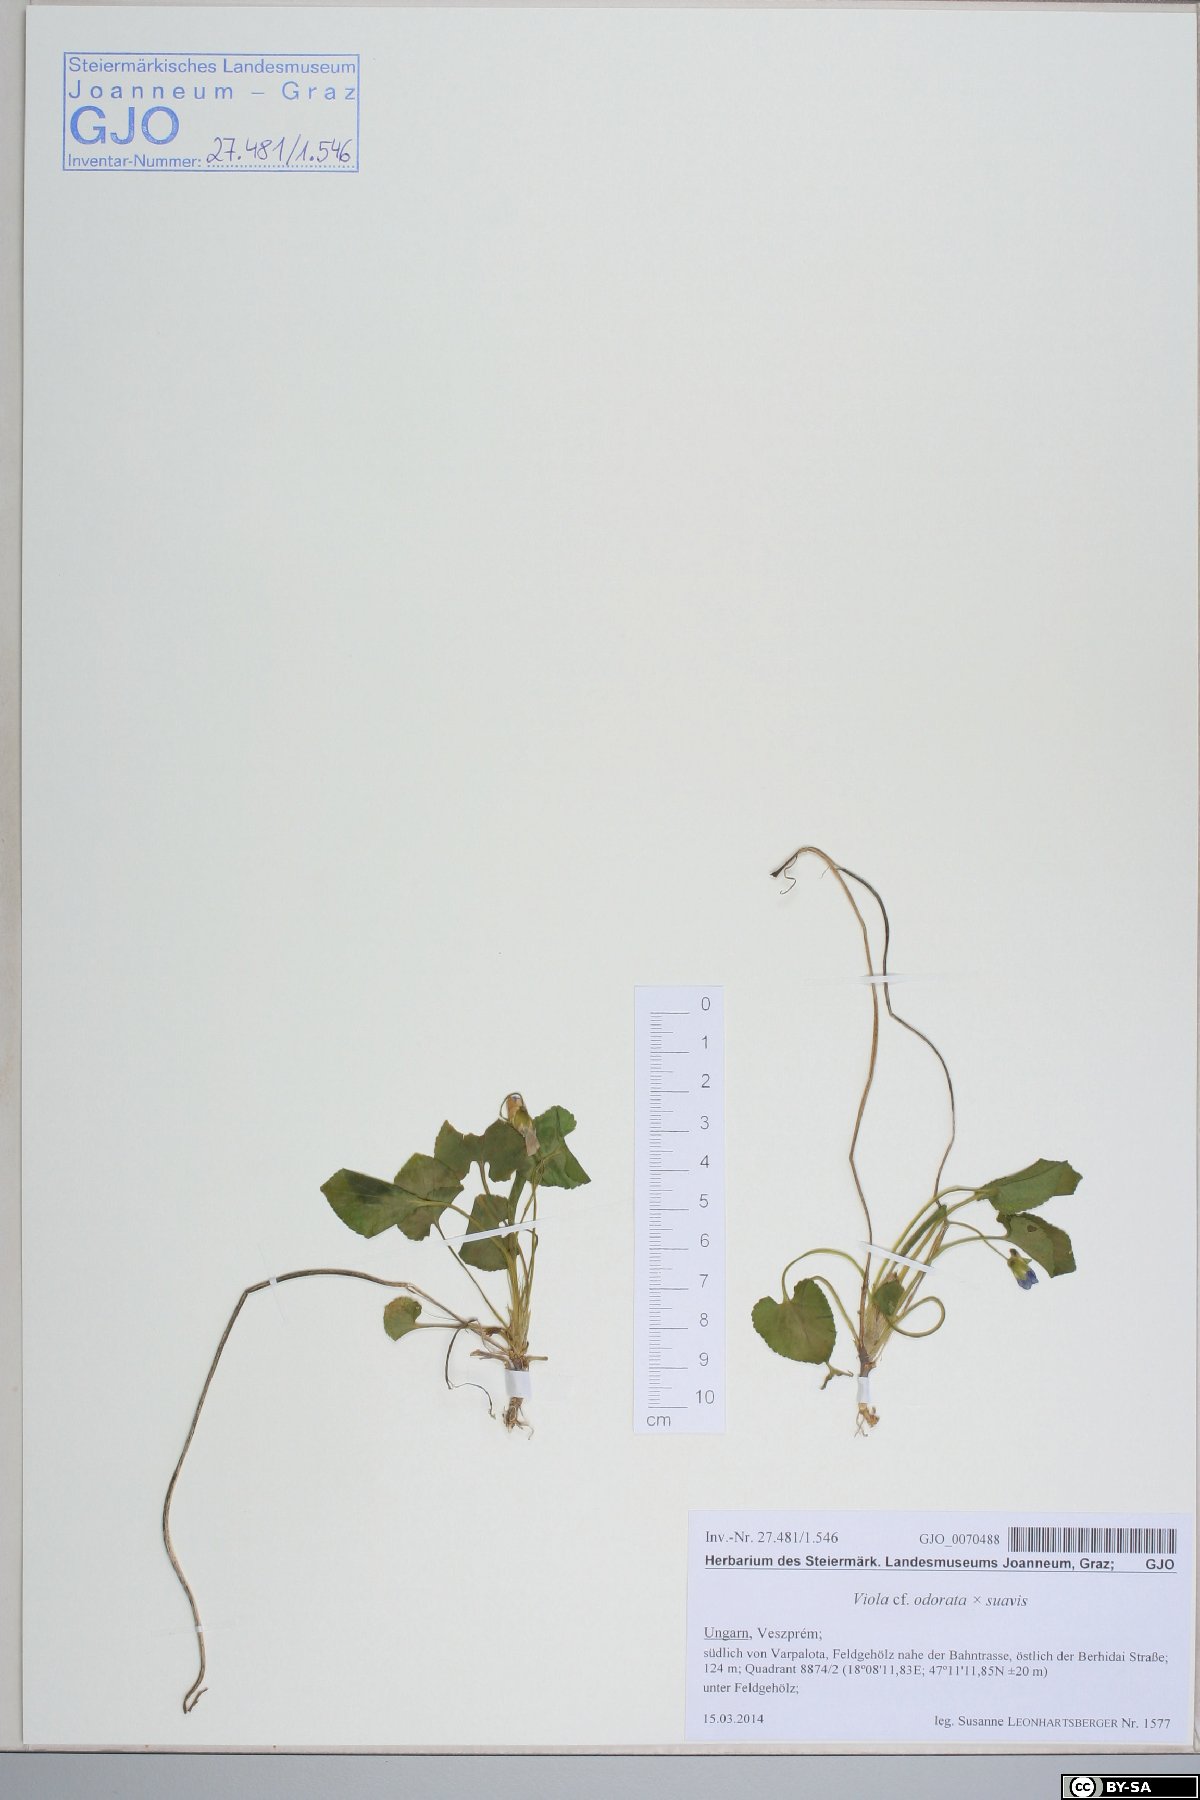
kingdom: Plantae
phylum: Tracheophyta
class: Magnoliopsida
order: Malpighiales
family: Violaceae
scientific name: Violaceae
